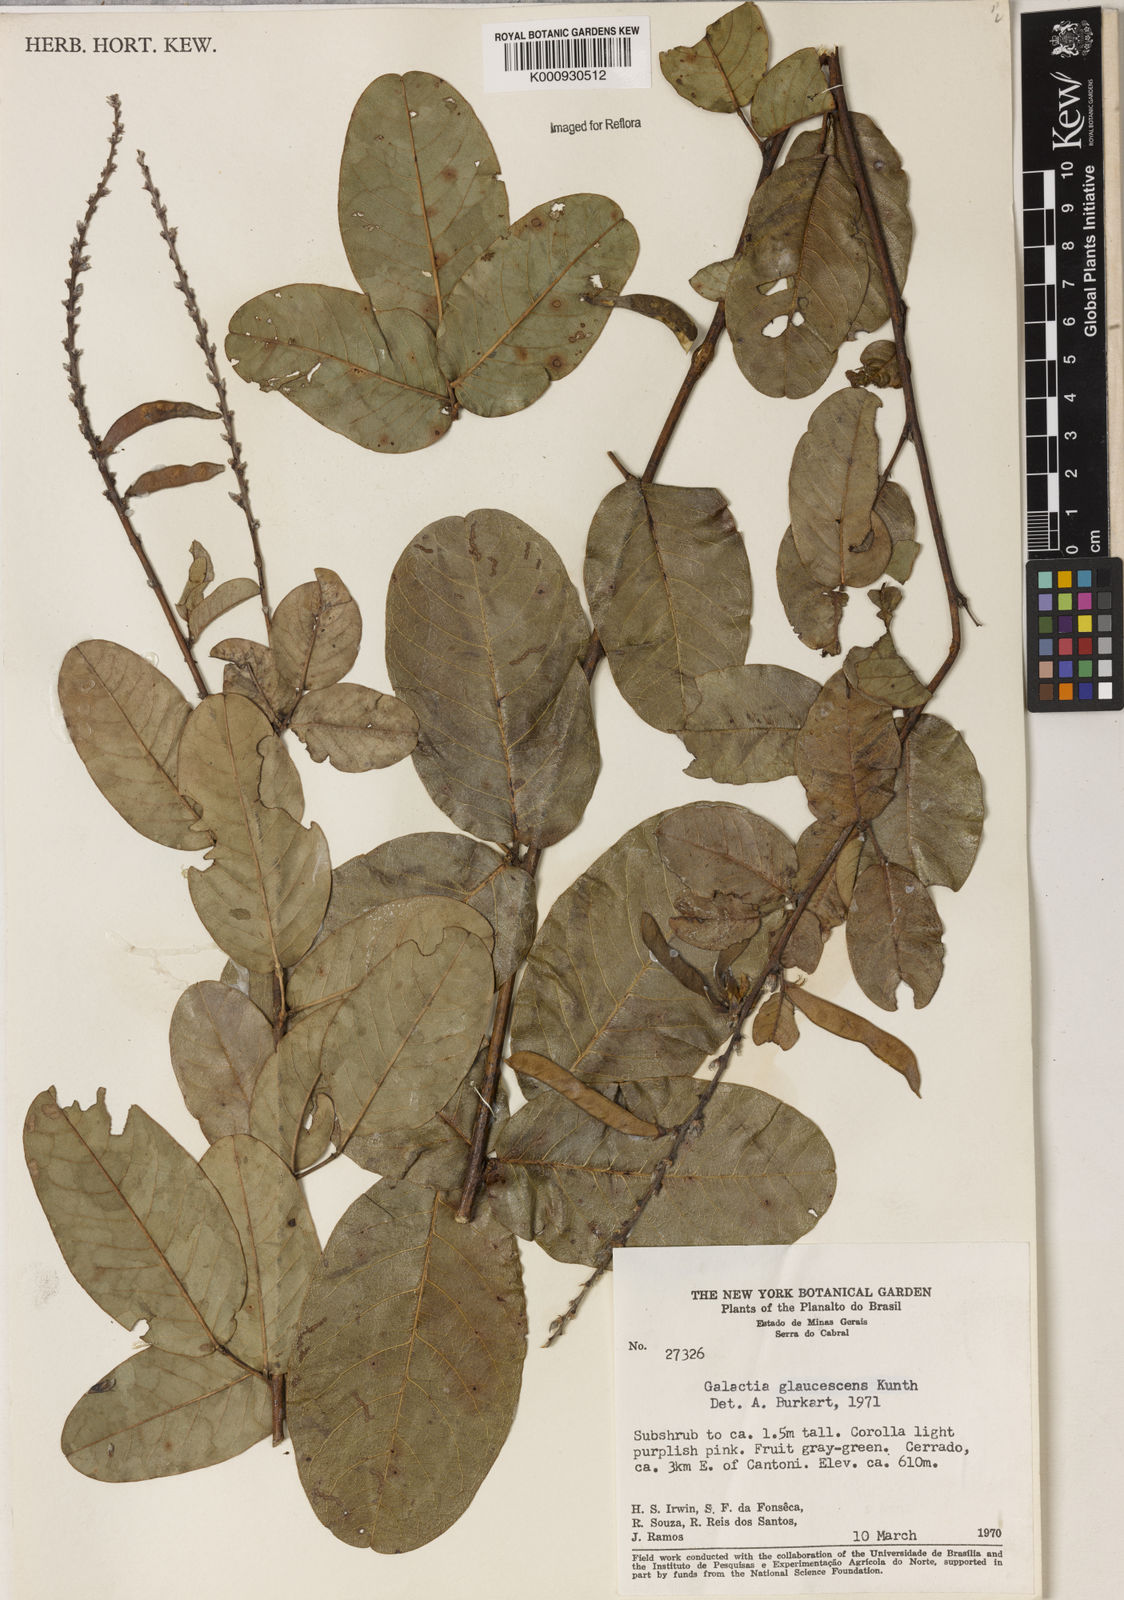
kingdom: Plantae
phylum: Tracheophyta
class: Magnoliopsida
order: Fabales
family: Fabaceae
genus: Galactia
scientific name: Galactia glaucescens
